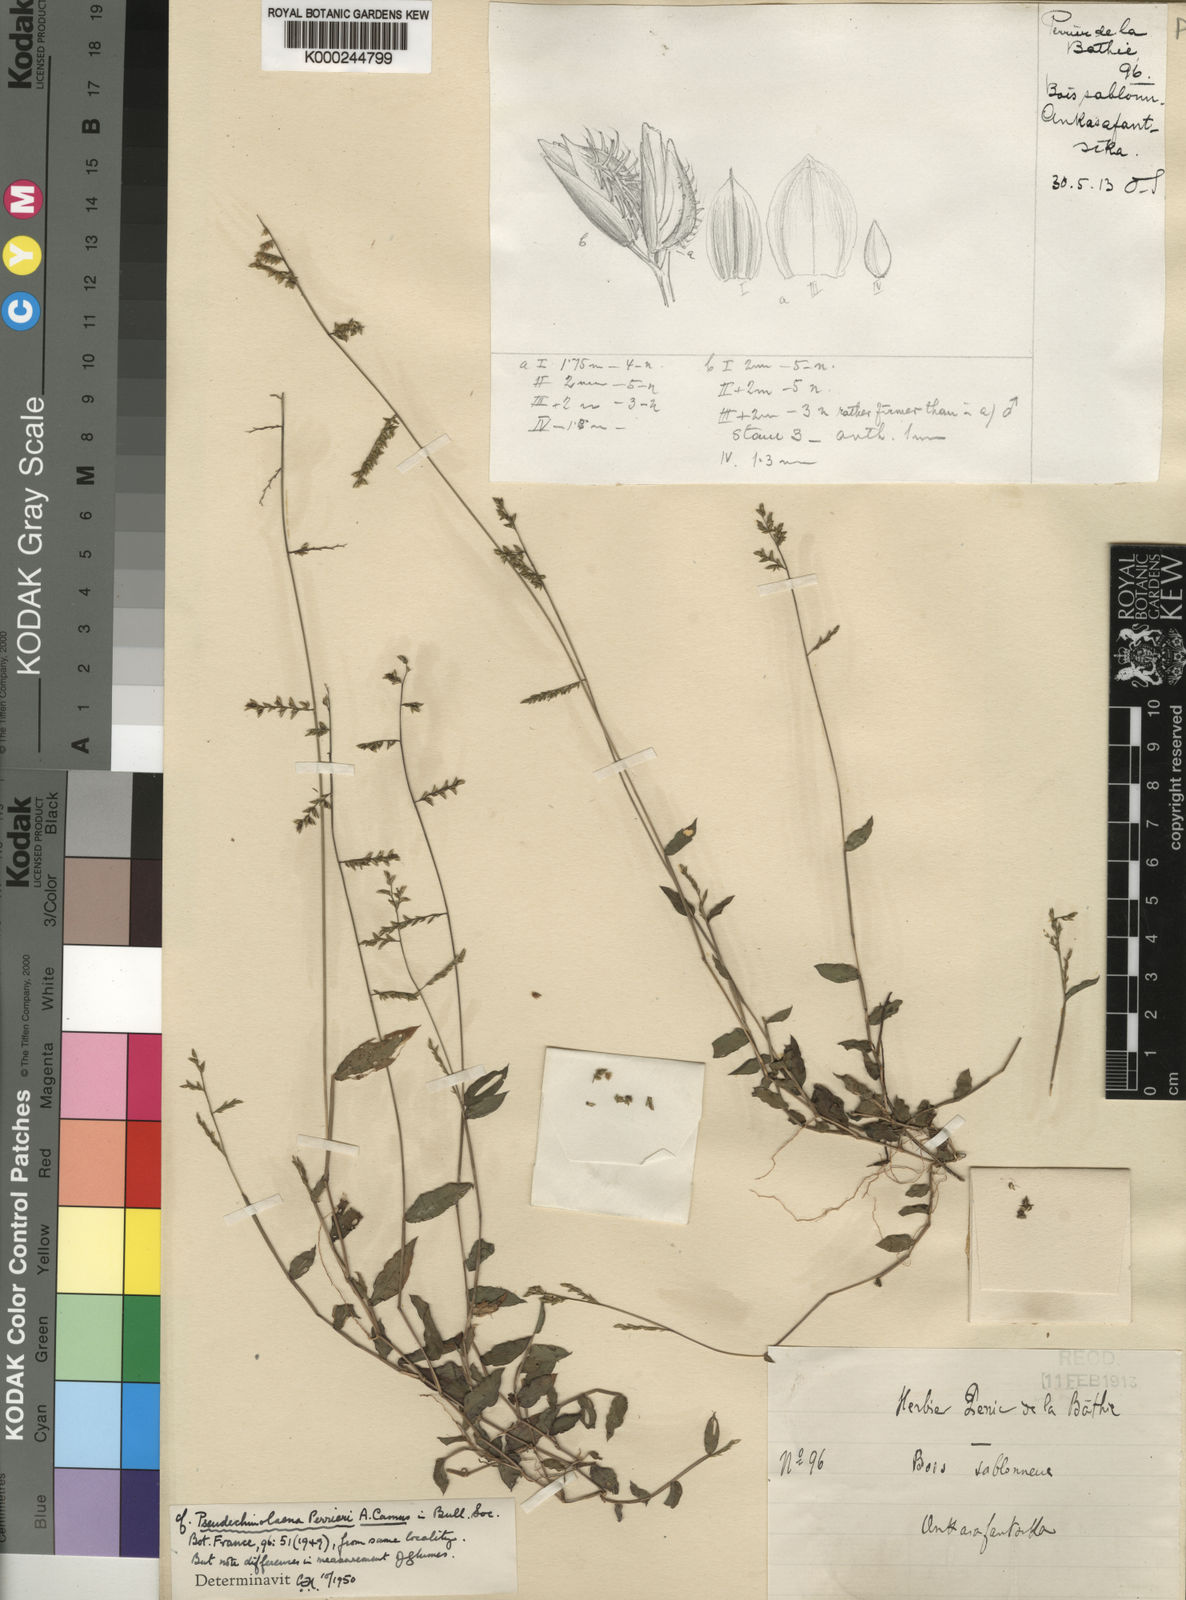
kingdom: Plantae
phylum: Tracheophyta
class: Liliopsida
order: Poales
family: Poaceae
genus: Pseudechinolaena
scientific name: Pseudechinolaena perrieri
